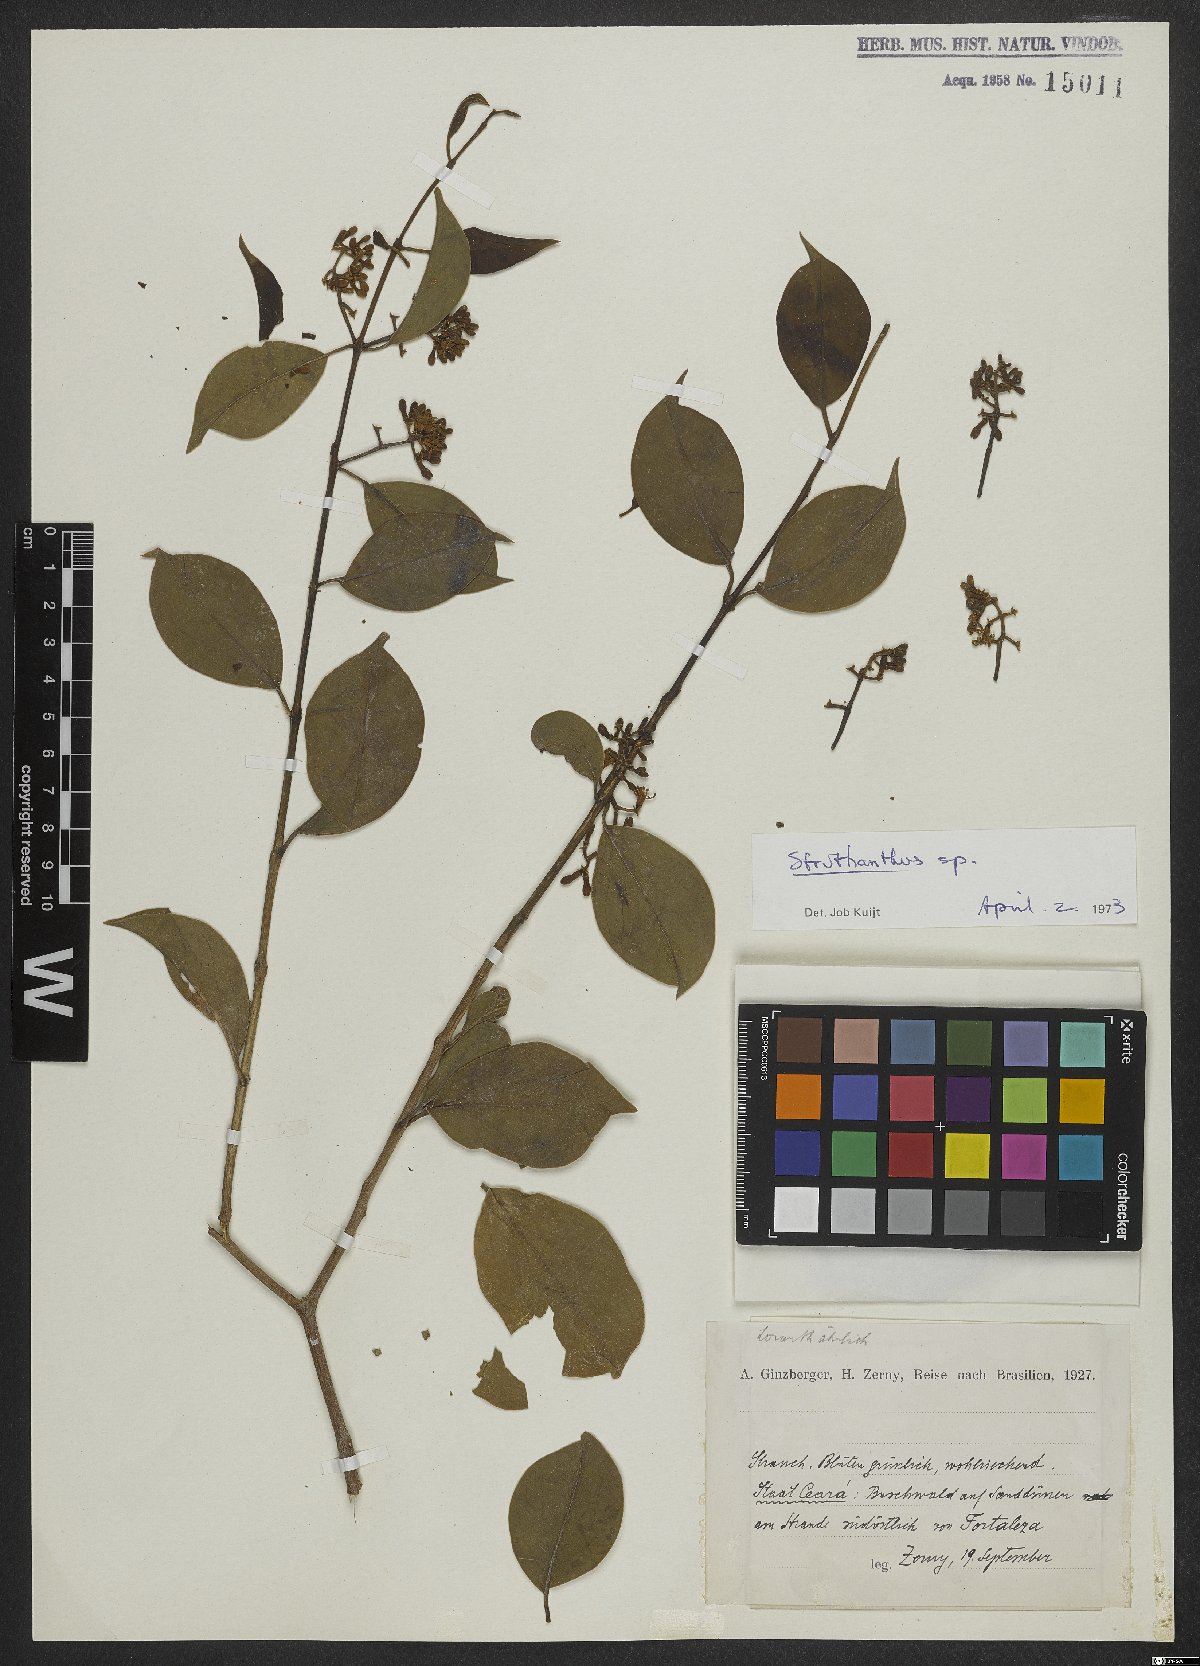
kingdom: Plantae
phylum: Tracheophyta
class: Magnoliopsida
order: Santalales
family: Loranthaceae
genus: Struthanthus
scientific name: Struthanthus
